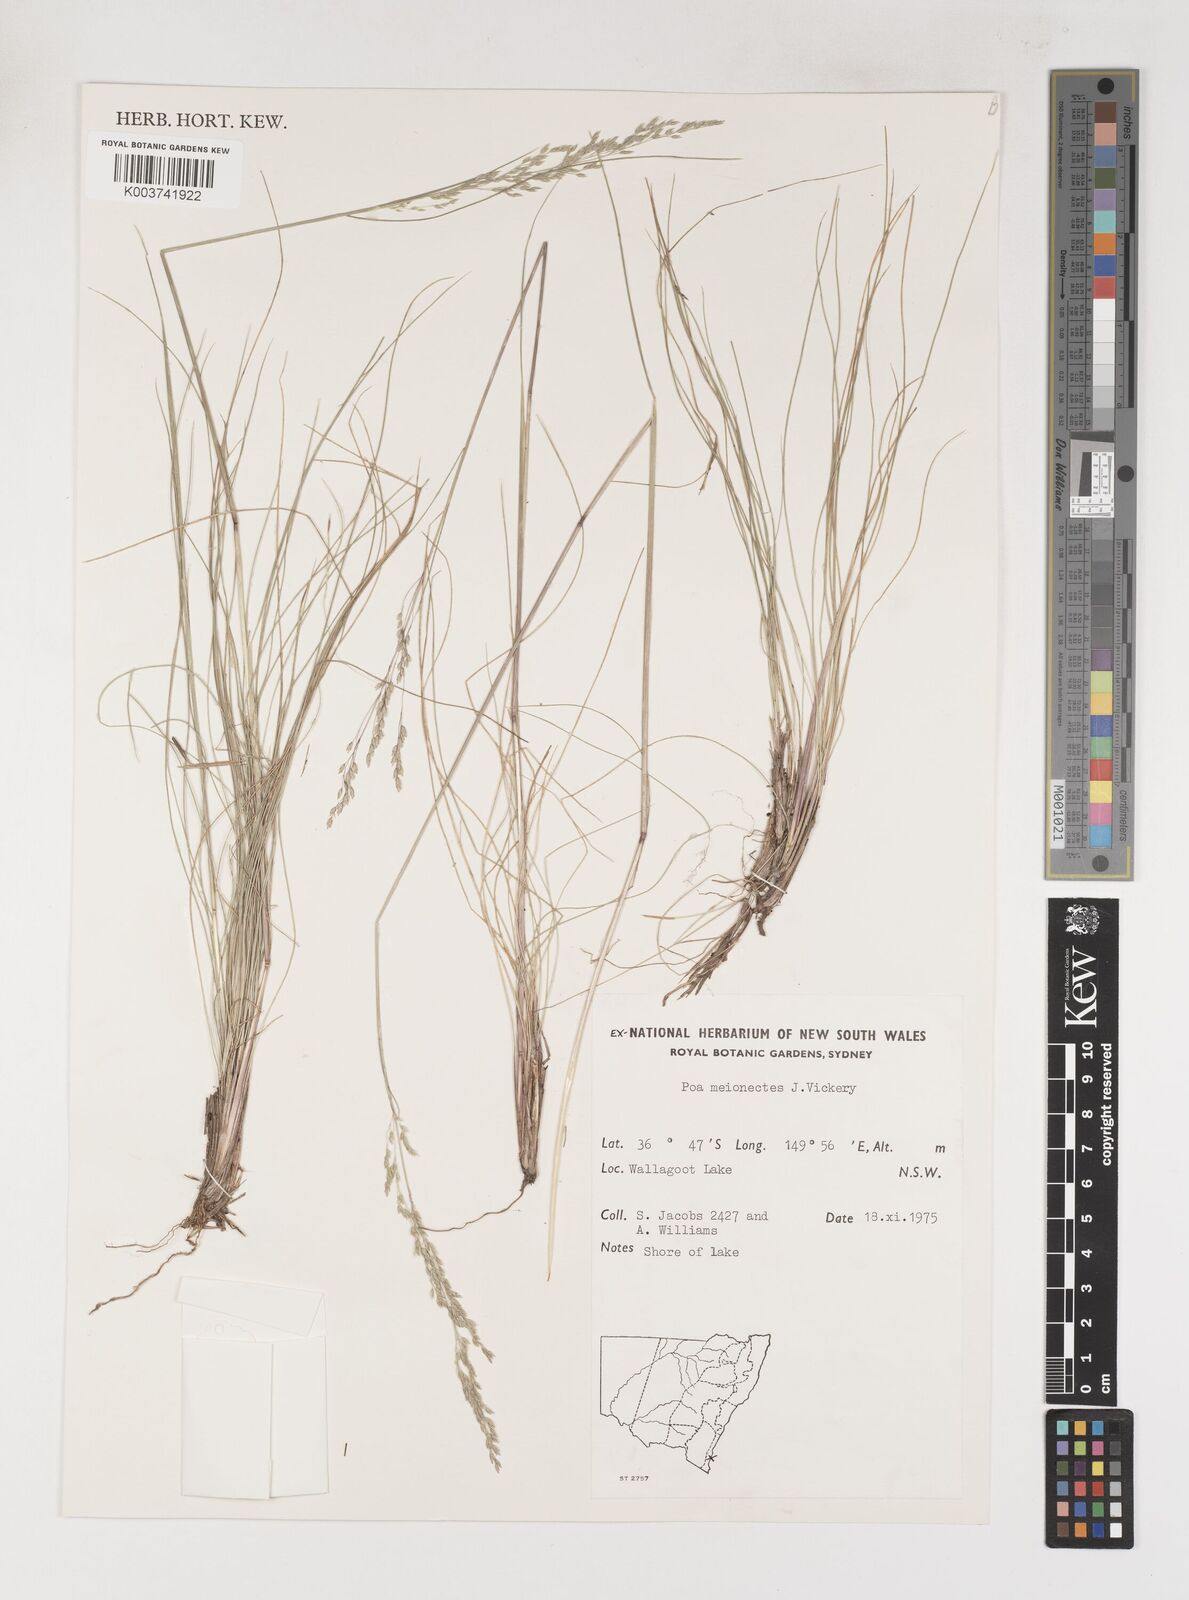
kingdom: Plantae
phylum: Tracheophyta
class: Liliopsida
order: Poales
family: Poaceae
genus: Poa
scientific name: Poa meionectes
